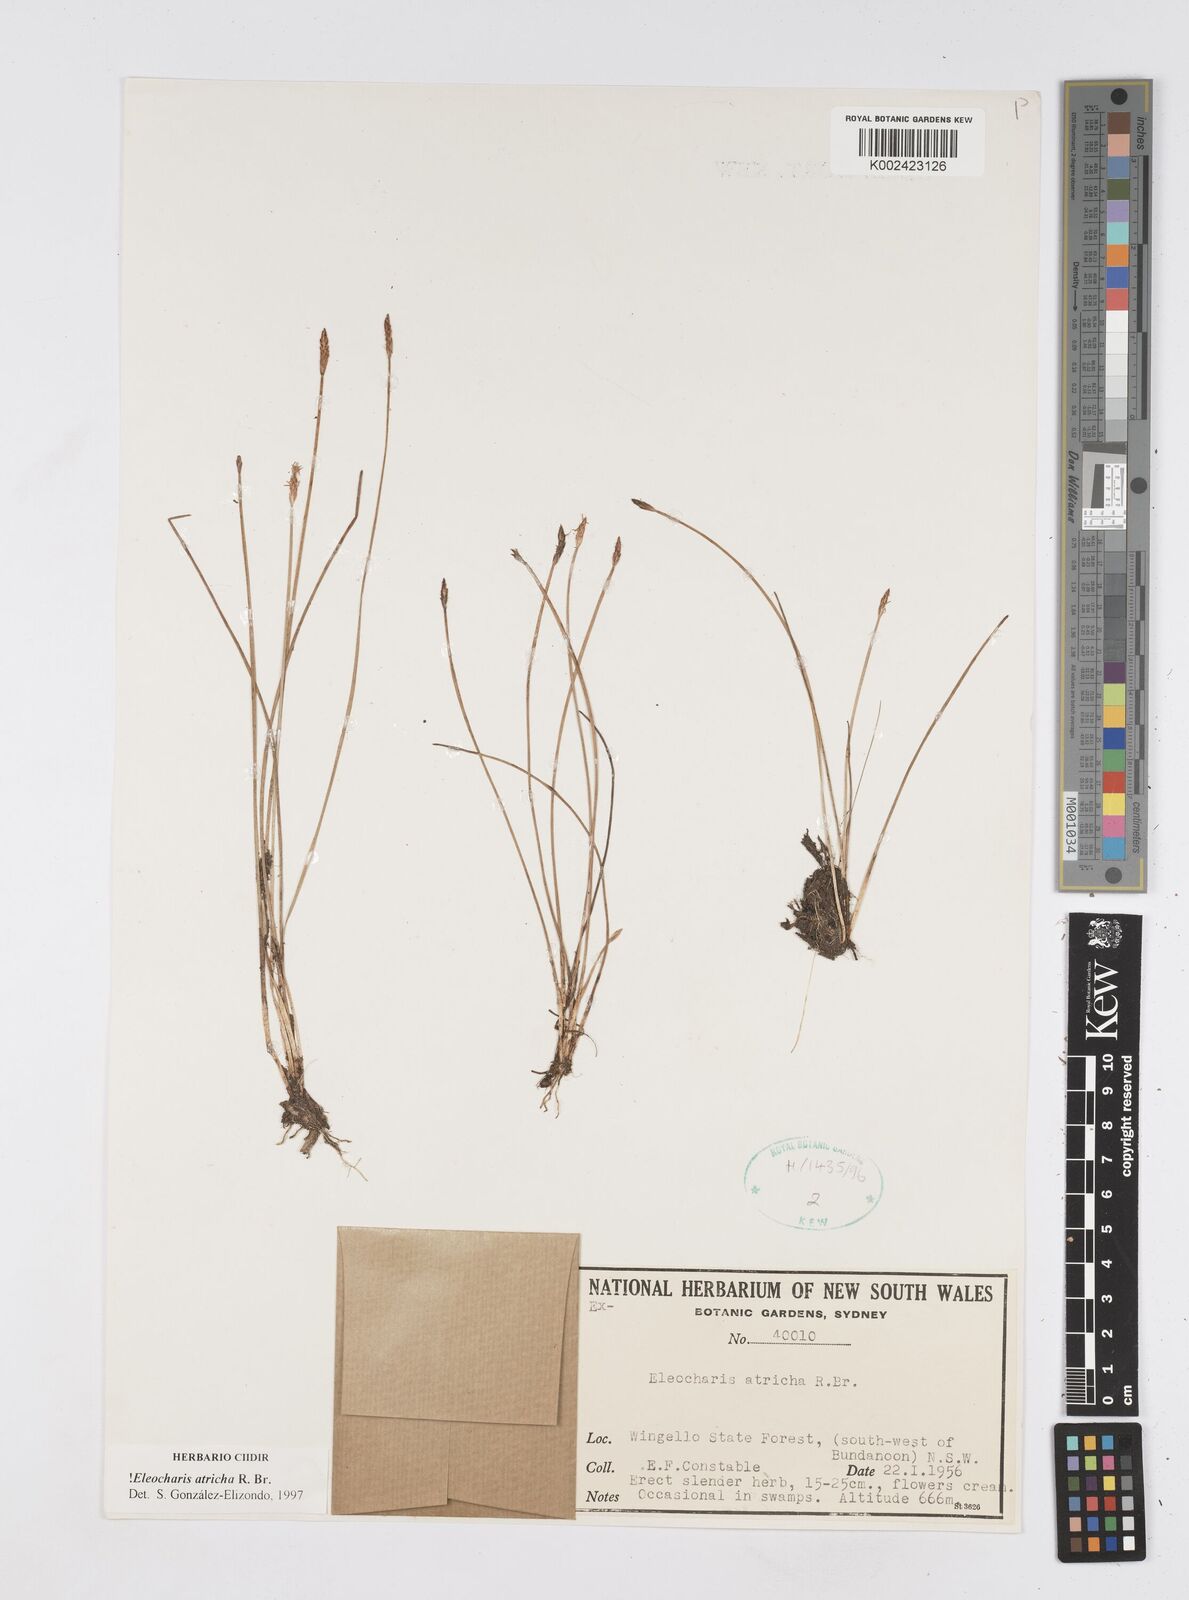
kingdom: Plantae
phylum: Tracheophyta
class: Liliopsida
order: Poales
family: Cyperaceae
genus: Eleocharis
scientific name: Eleocharis acicularis
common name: Needle spike-rush
